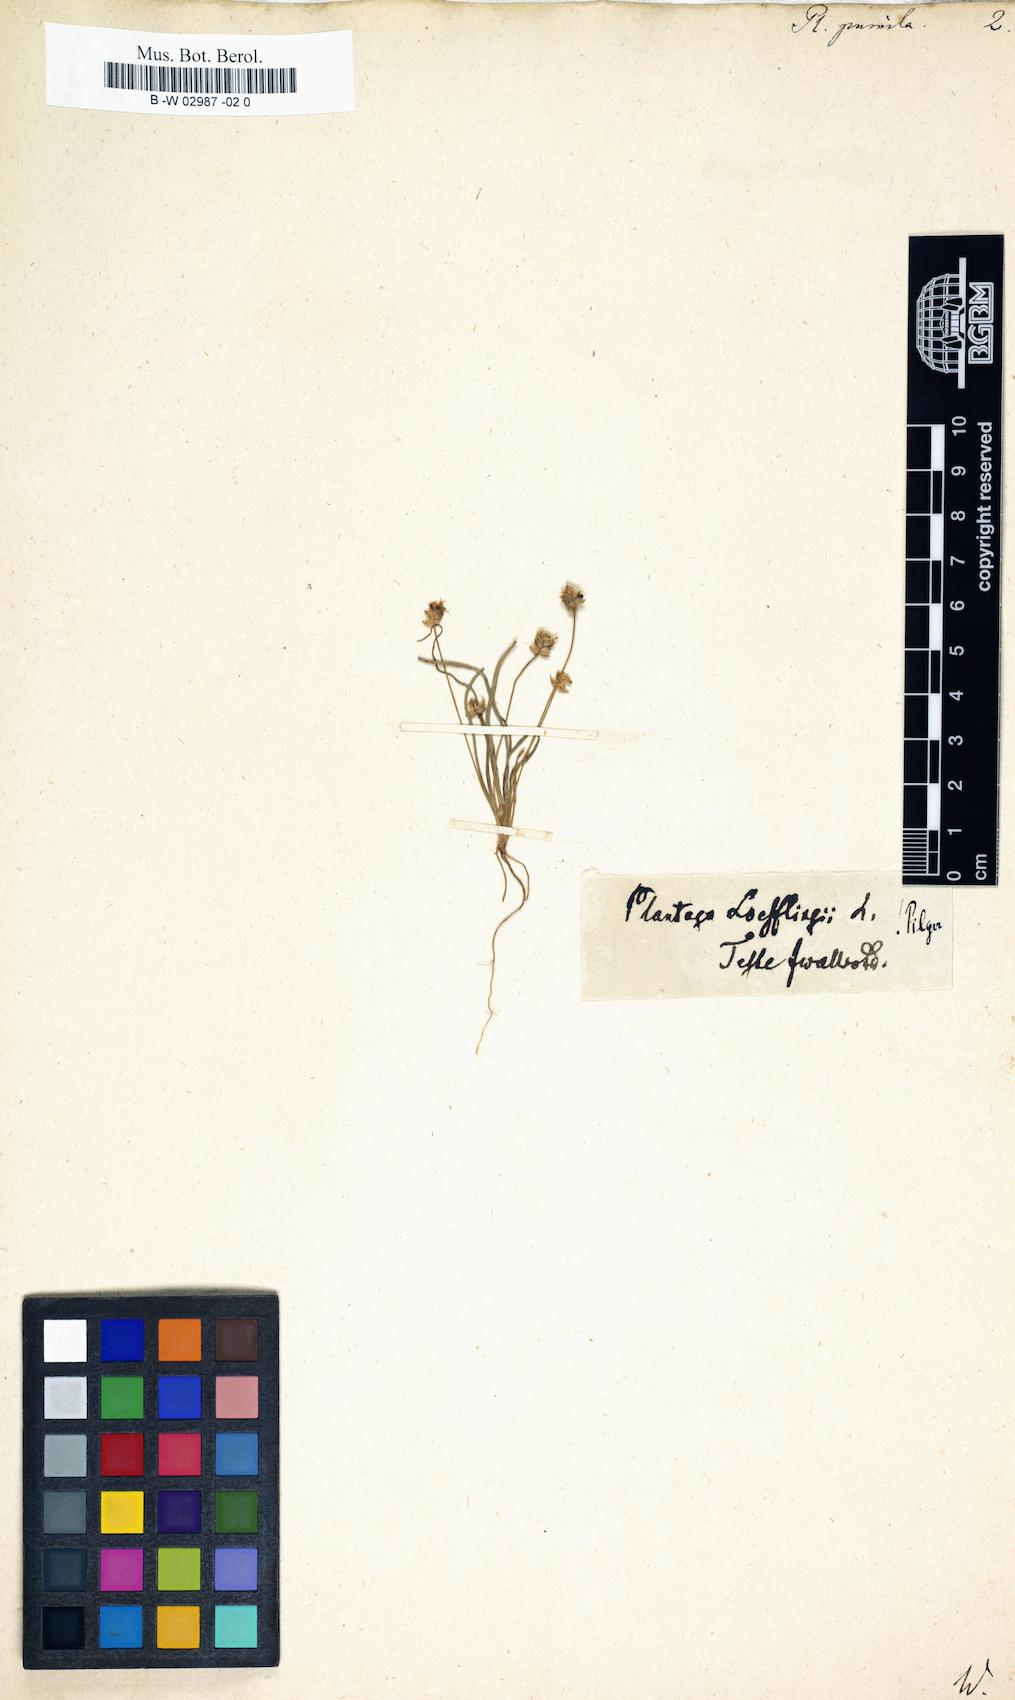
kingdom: Plantae
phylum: Tracheophyta
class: Magnoliopsida
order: Lamiales
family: Plantaginaceae
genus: Plantago
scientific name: Plantago
